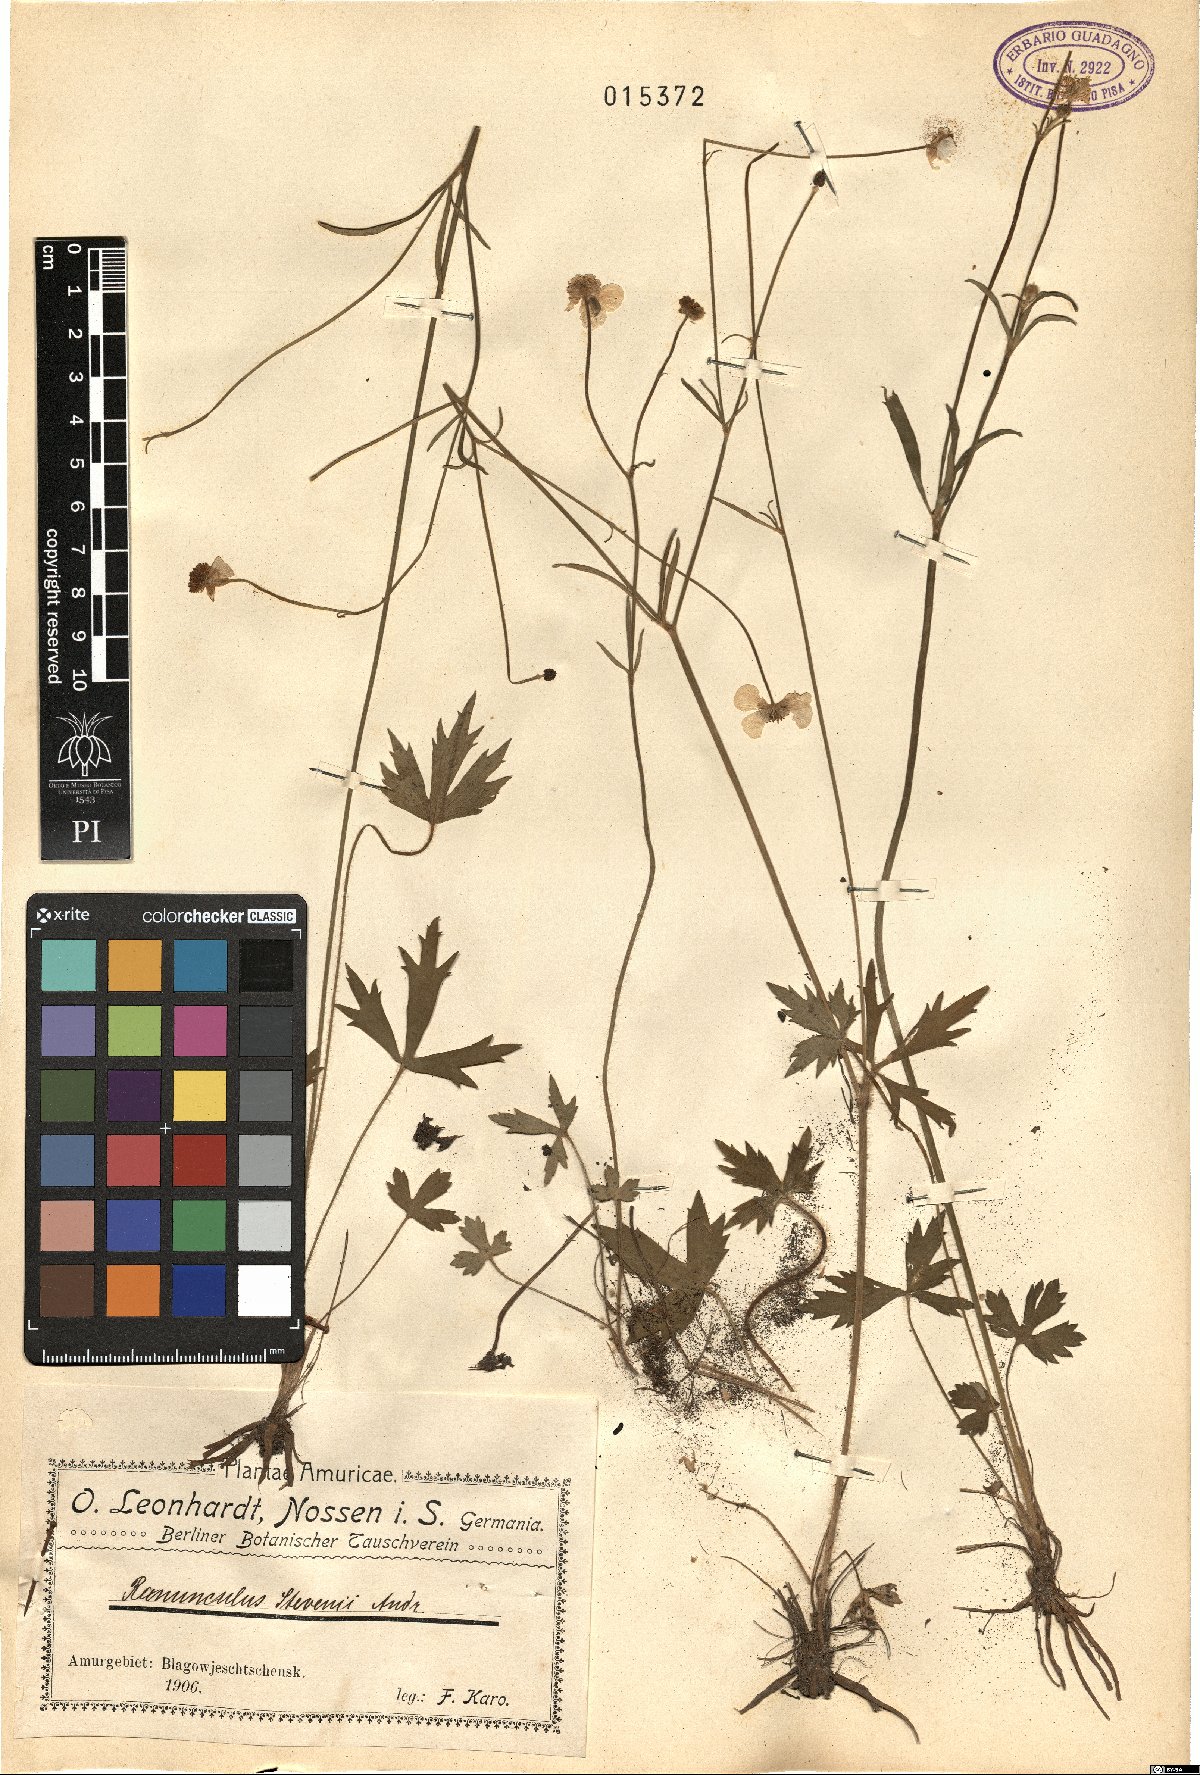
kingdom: Plantae
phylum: Tracheophyta
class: Magnoliopsida
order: Ranunculales
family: Ranunculaceae
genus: Ranunculus
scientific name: Ranunculus japonicus
